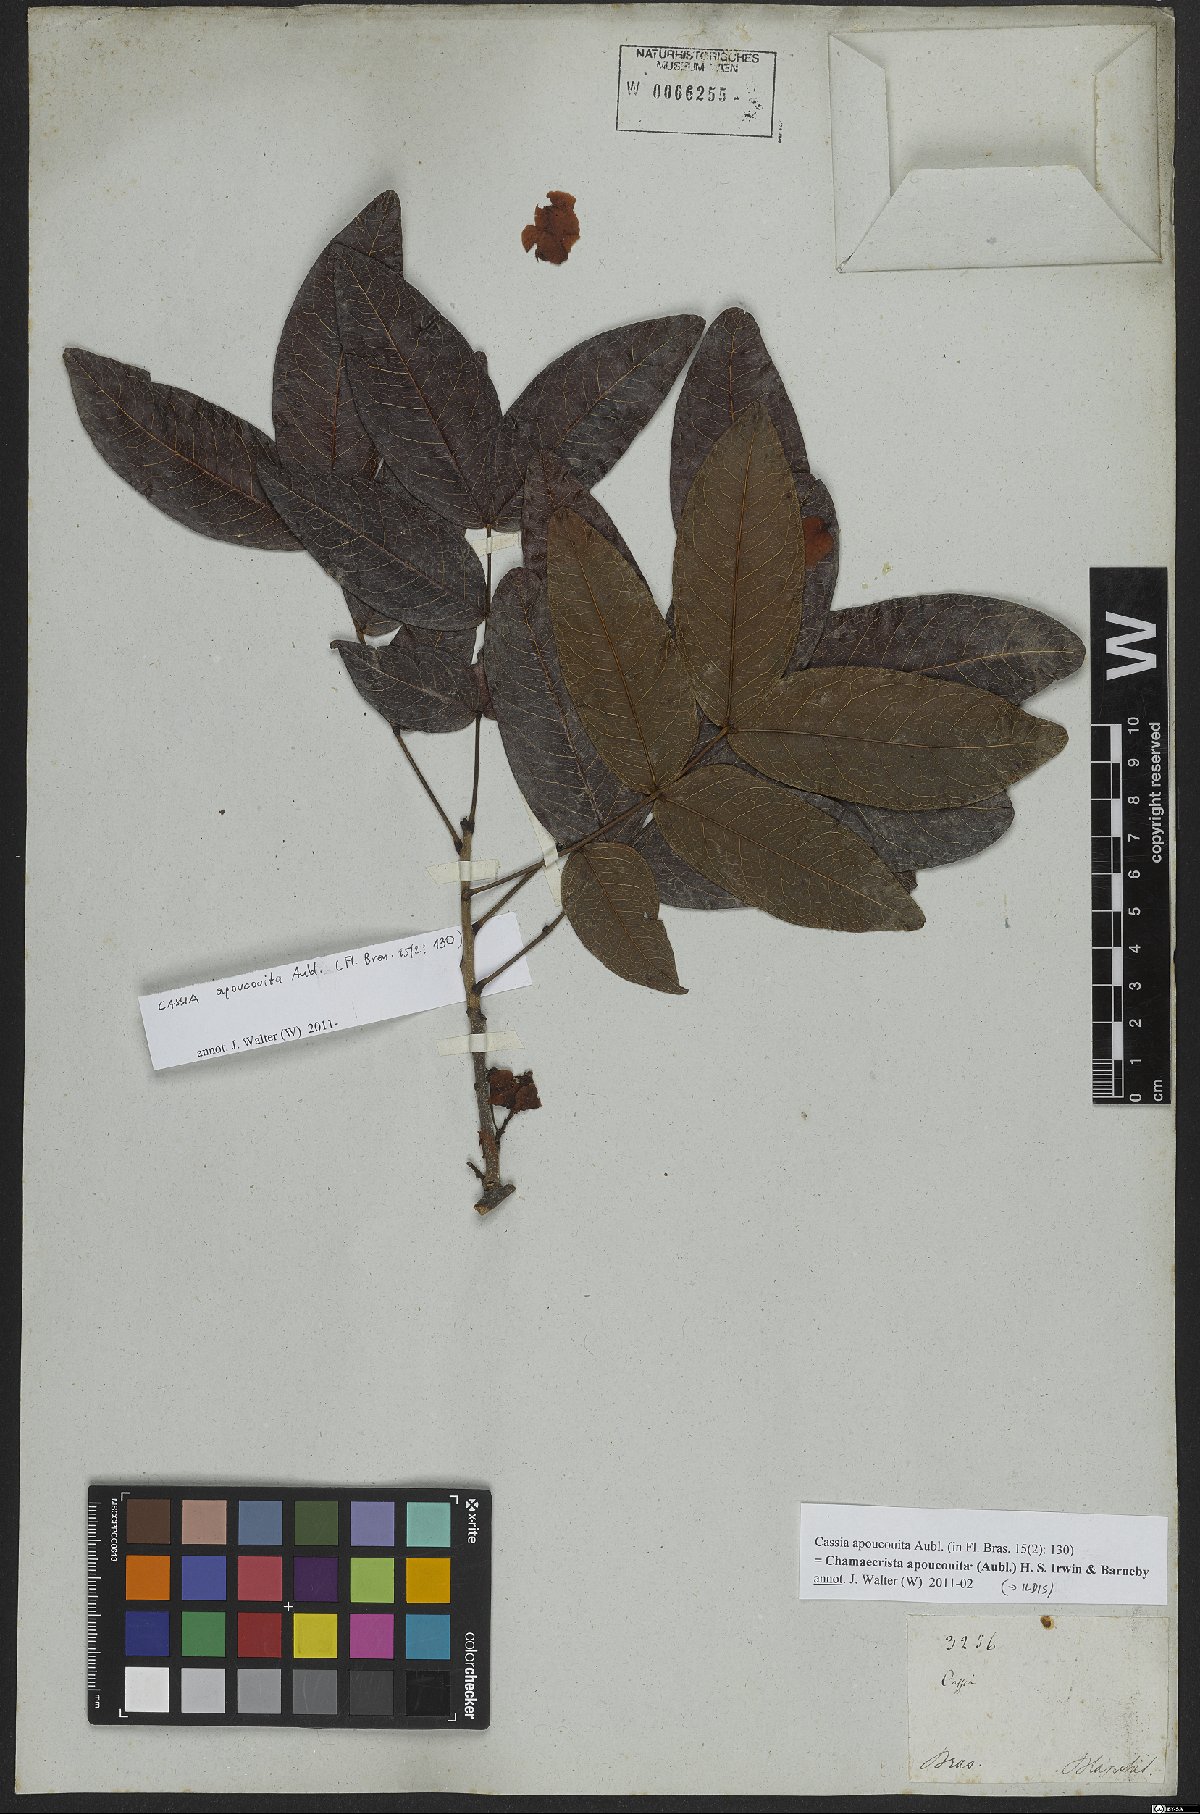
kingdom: Plantae
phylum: Tracheophyta
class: Magnoliopsida
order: Fabales
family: Fabaceae
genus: Chamaecrista
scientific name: Chamaecrista apoucouita
